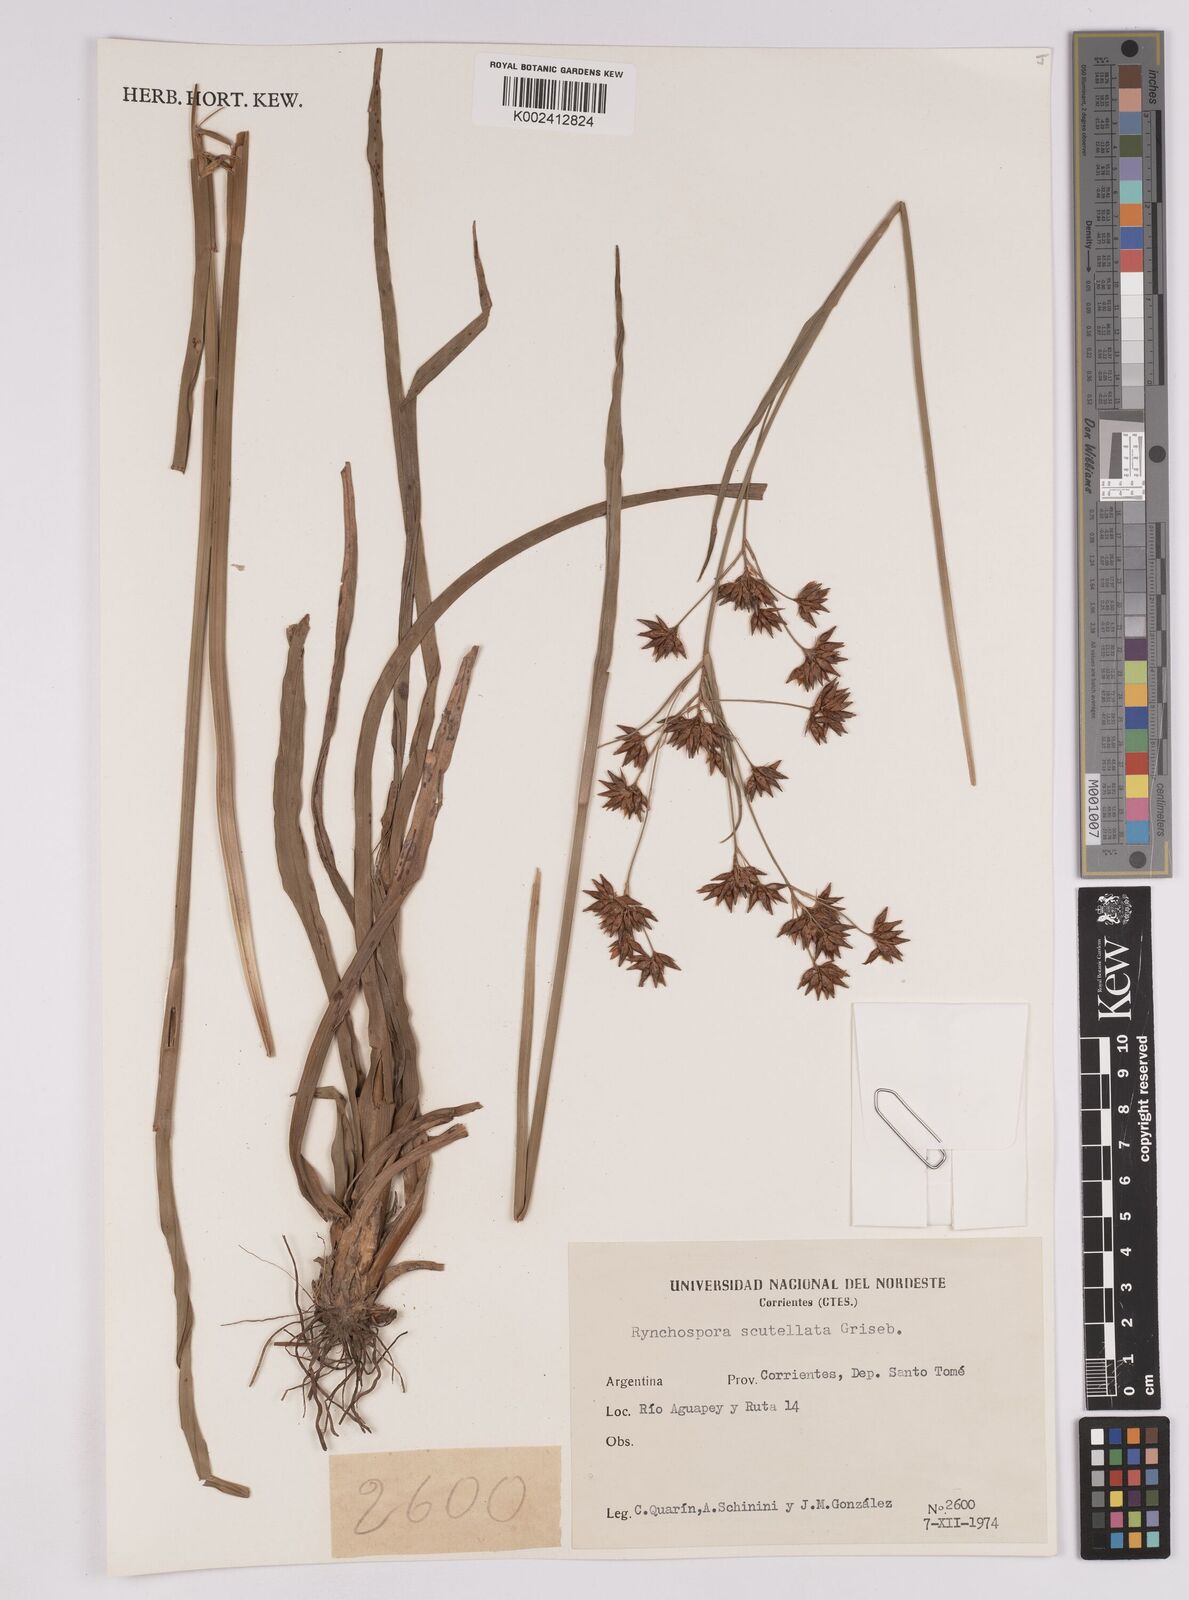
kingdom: Plantae
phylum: Tracheophyta
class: Liliopsida
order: Poales
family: Cyperaceae
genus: Rhynchospora
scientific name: Rhynchospora scutellata
